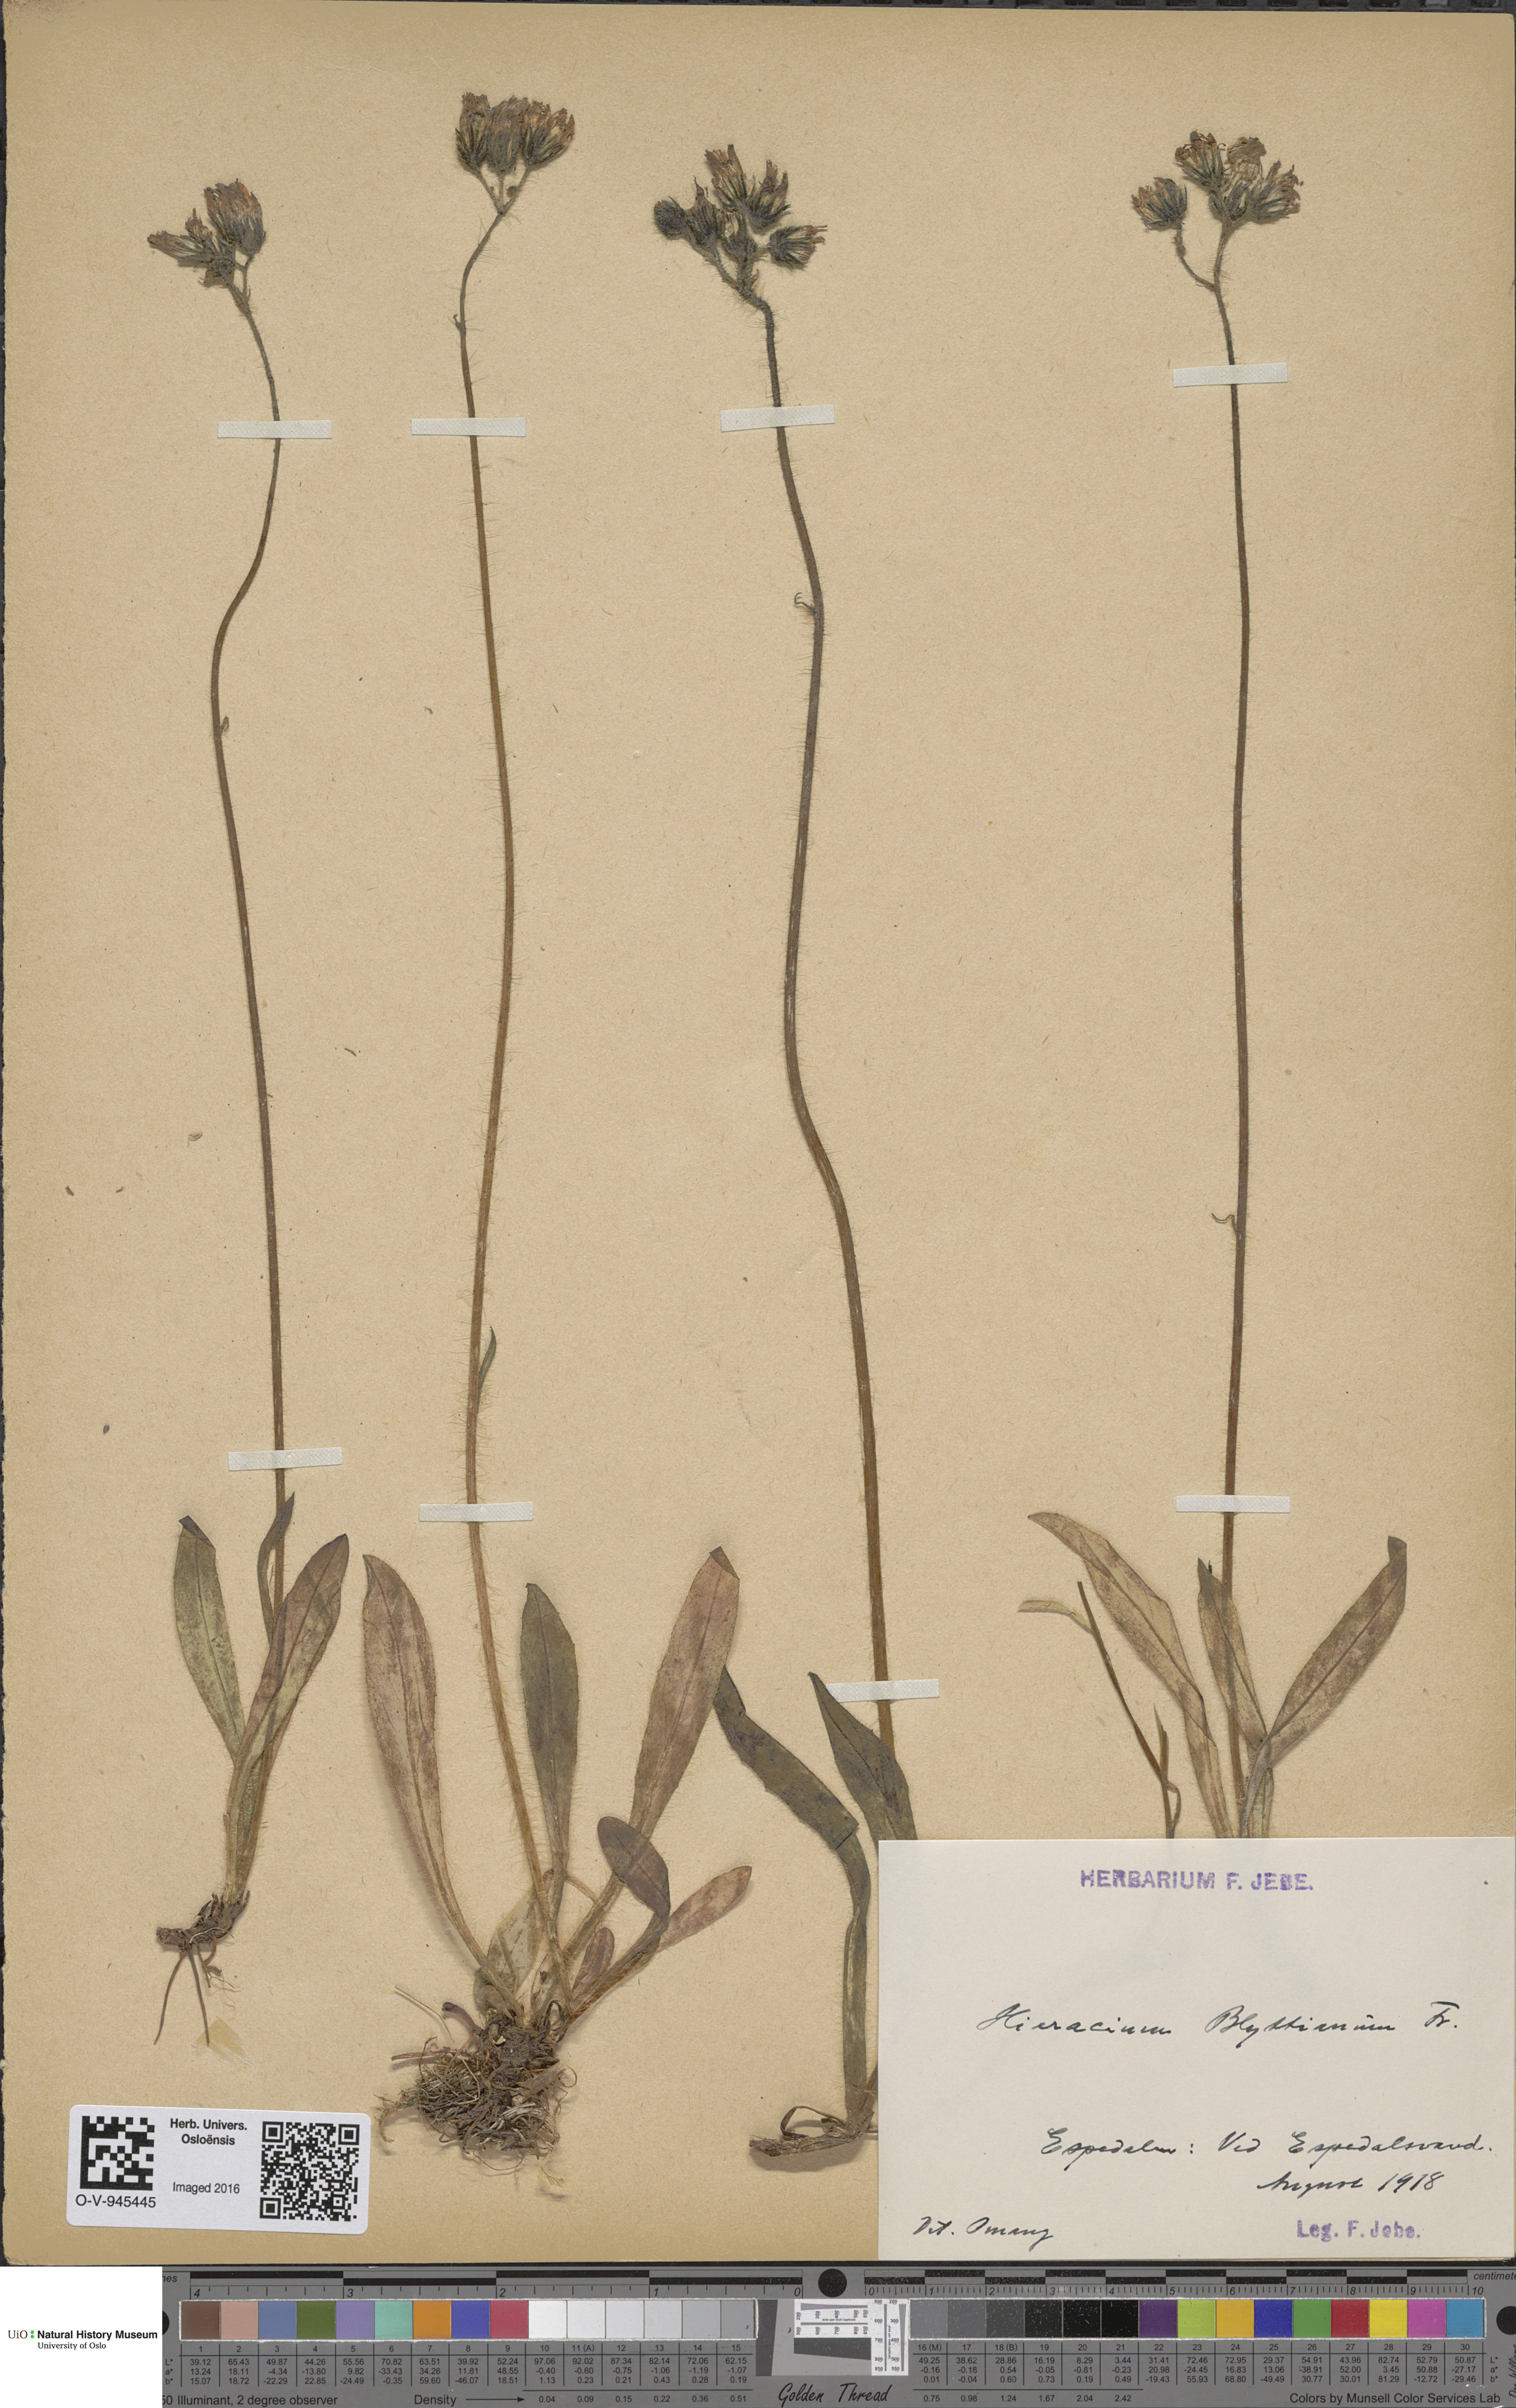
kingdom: Plantae
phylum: Tracheophyta
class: Magnoliopsida
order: Asterales
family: Asteraceae
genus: Pilosella
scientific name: Pilosella blyttiana
